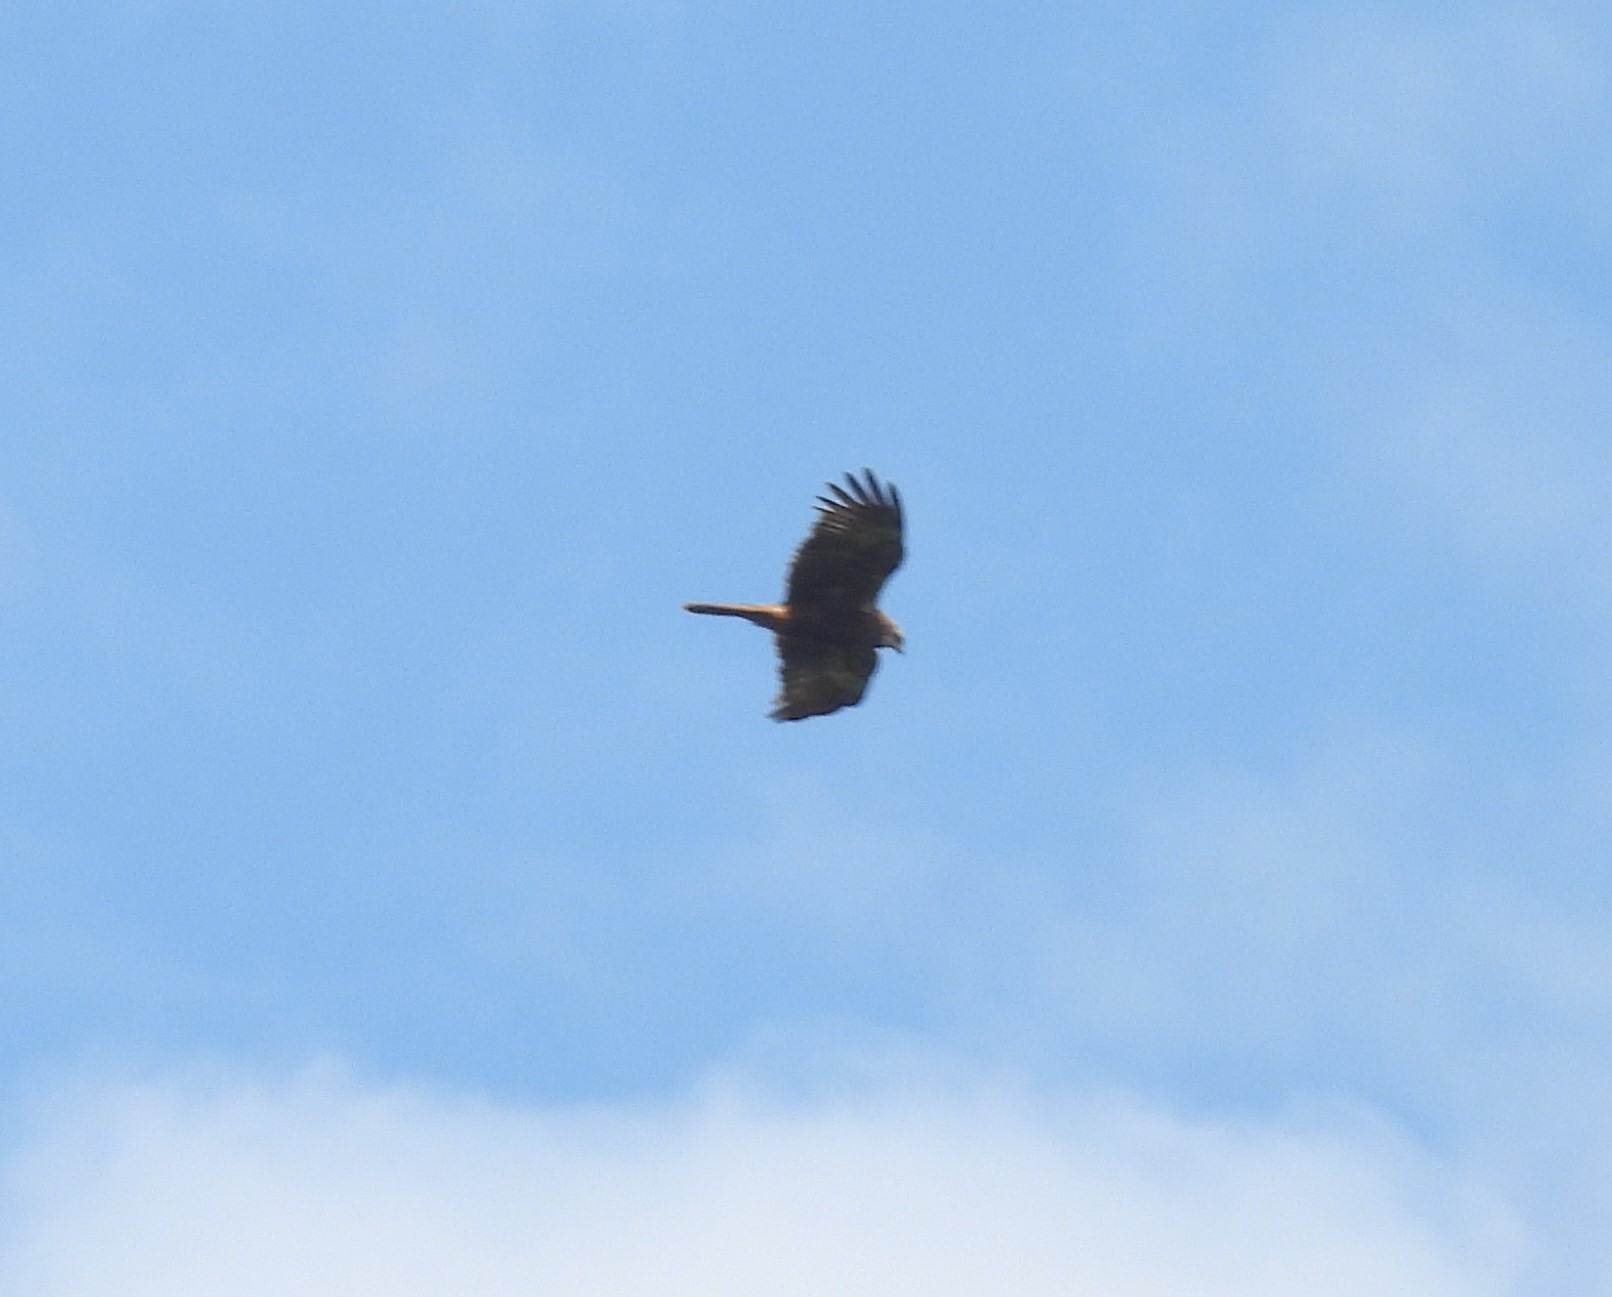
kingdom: Animalia
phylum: Chordata
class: Aves
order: Accipitriformes
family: Accipitridae
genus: Circus
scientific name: Circus aeruginosus
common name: Rørhøg
